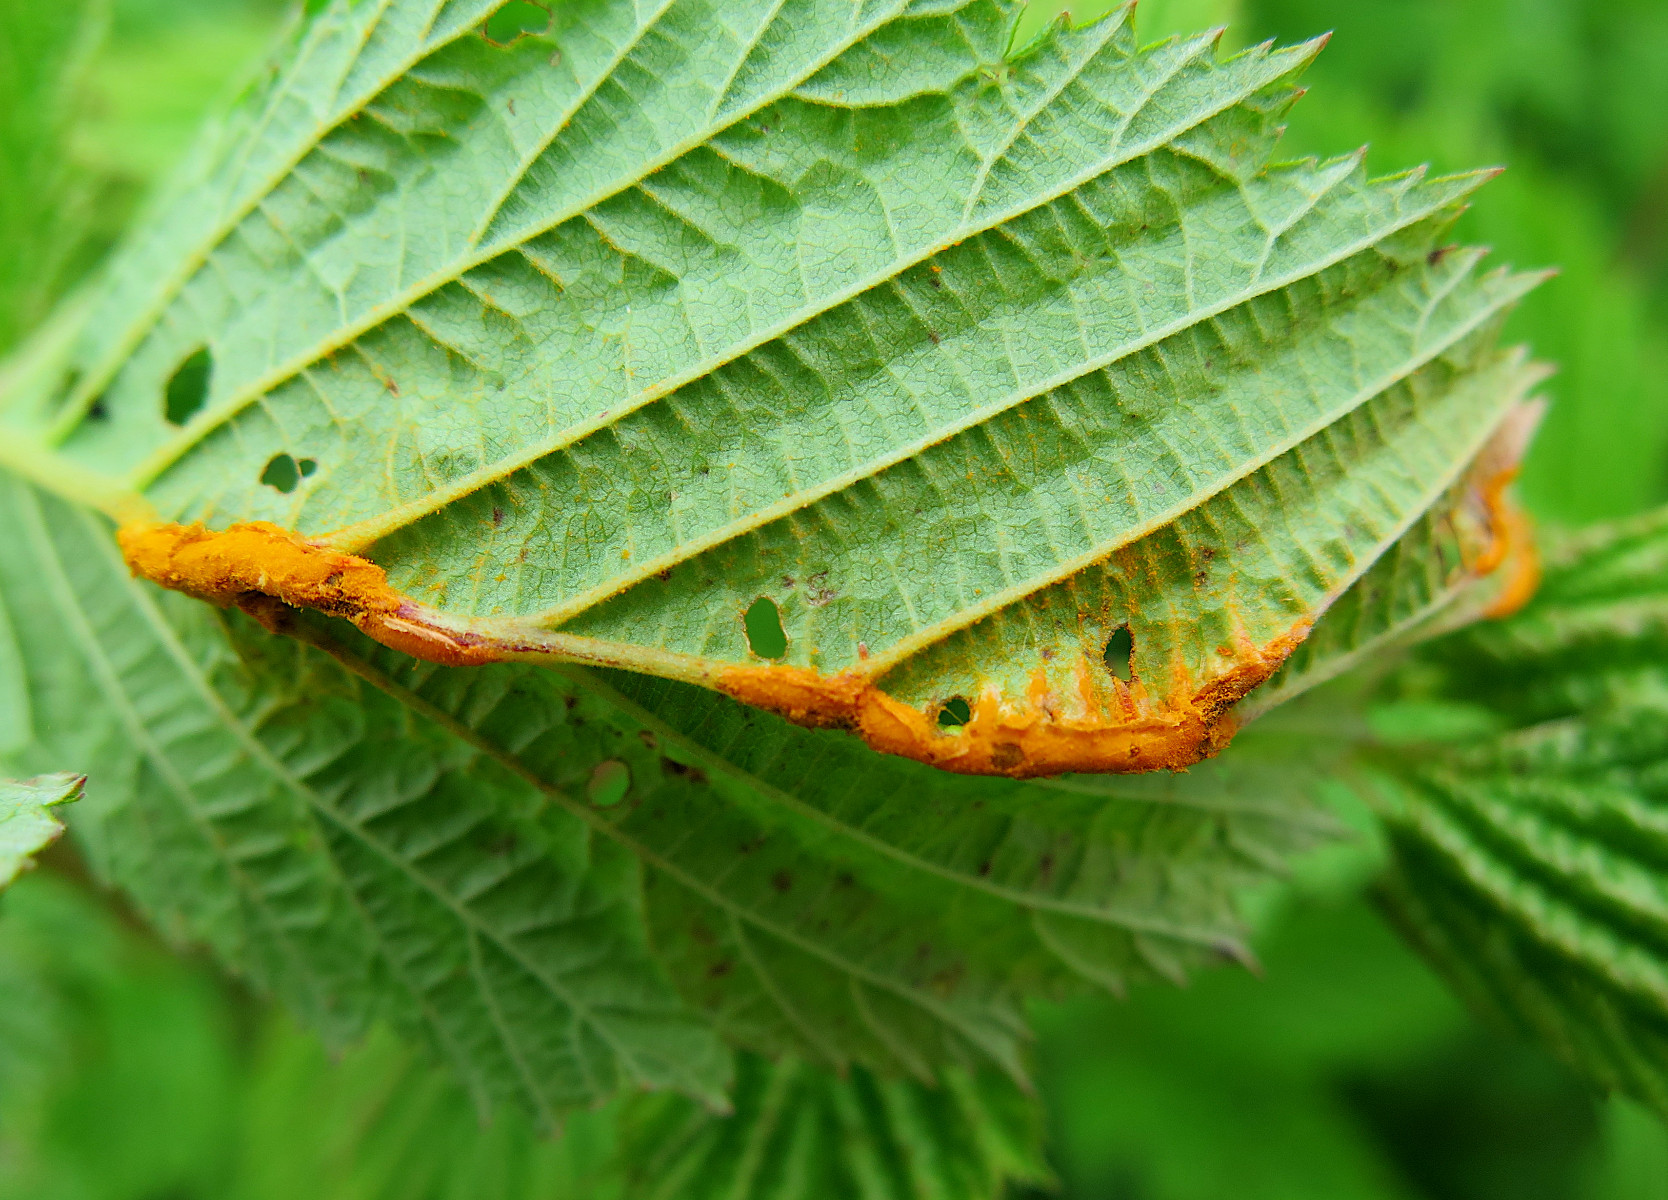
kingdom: Fungi
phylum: Basidiomycota
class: Pucciniomycetes
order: Pucciniales
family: Raveneliaceae
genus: Triphragmium
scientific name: Triphragmium ulmariae
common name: almindelig mjødurtrust
